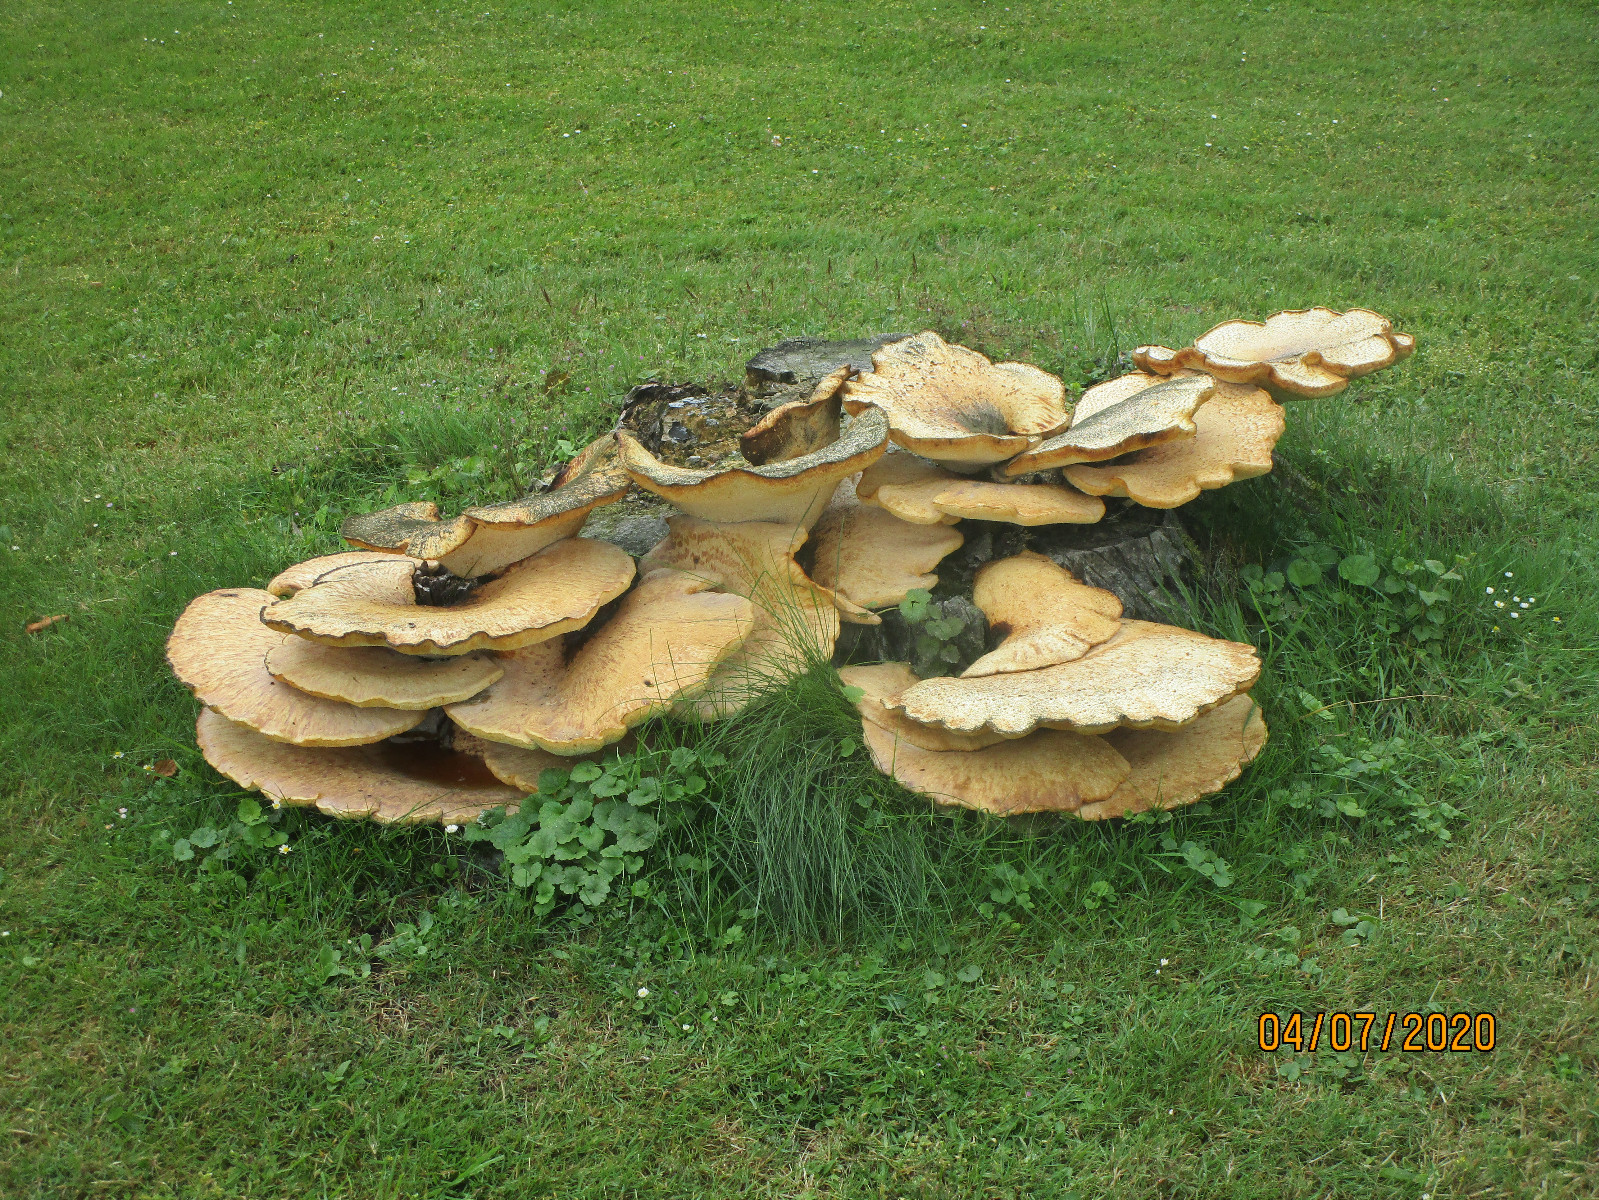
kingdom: Fungi
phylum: Basidiomycota
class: Agaricomycetes
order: Polyporales
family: Polyporaceae
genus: Cerioporus
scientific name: Cerioporus squamosus
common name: skællet stilkporesvamp
